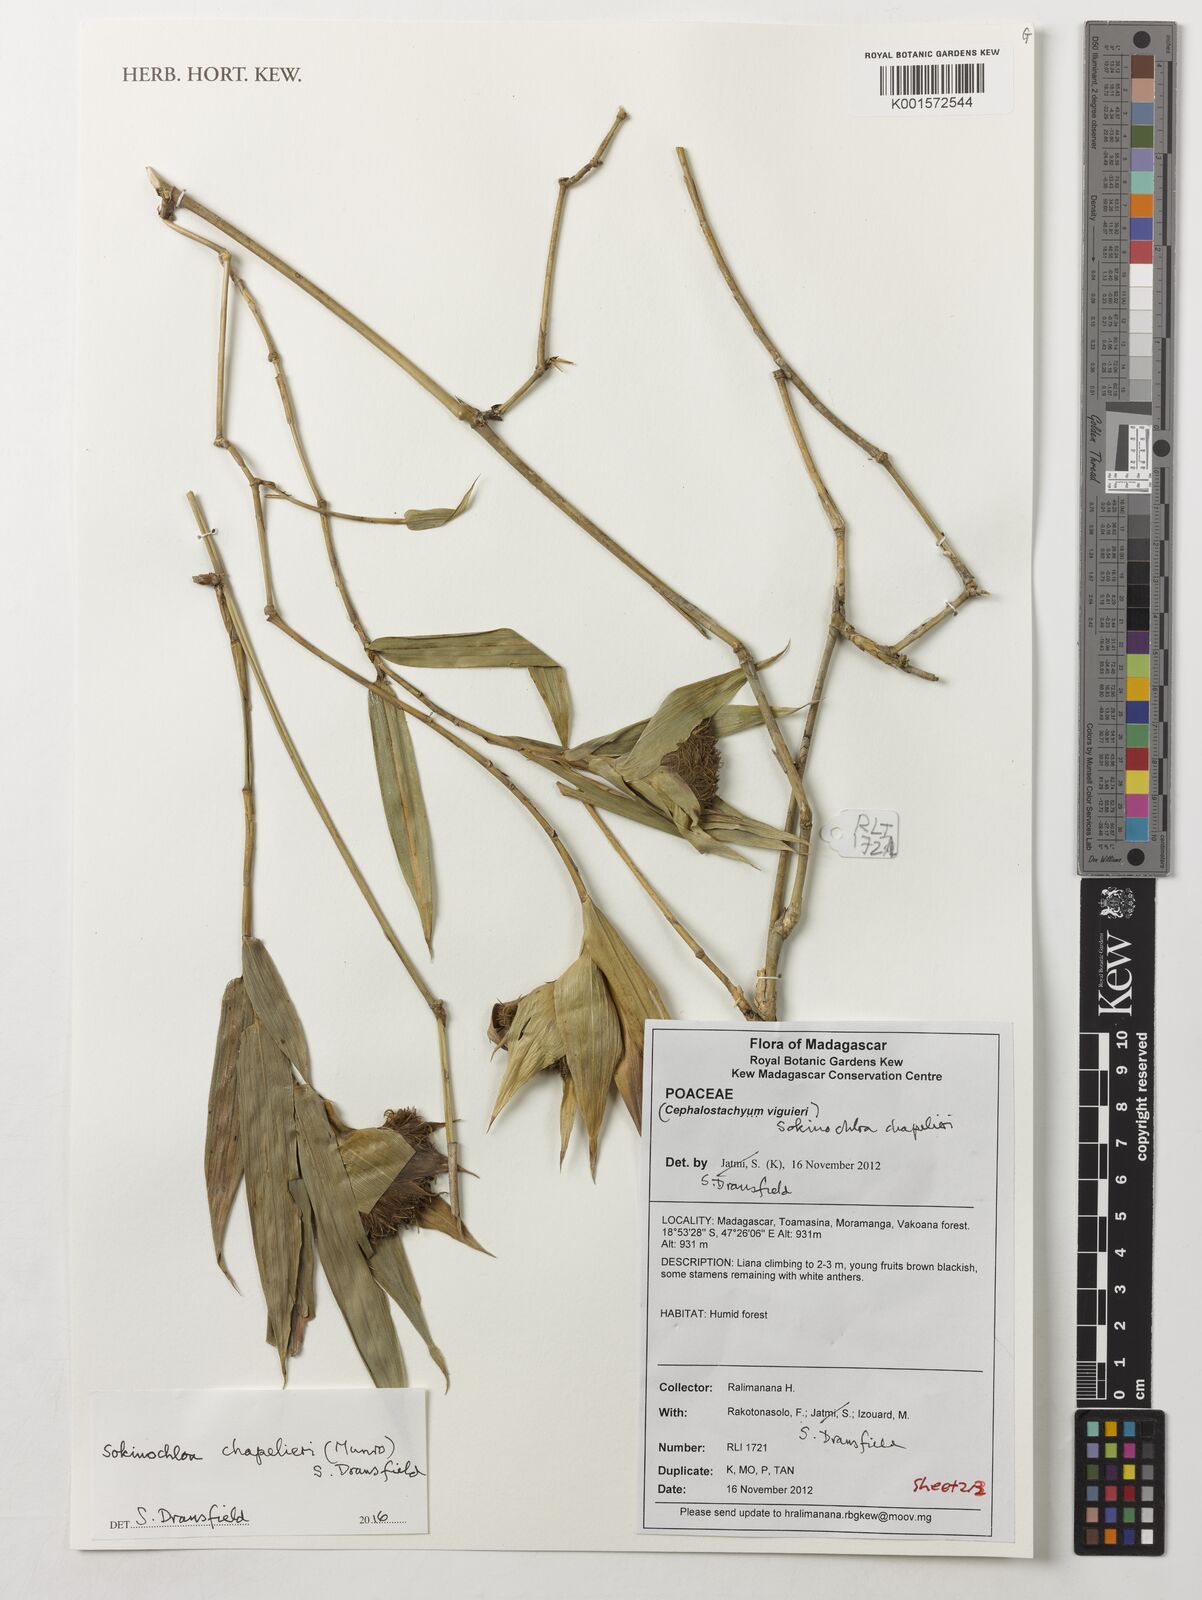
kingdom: Plantae
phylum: Tracheophyta
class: Liliopsida
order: Poales
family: Poaceae
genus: Sokinochloa
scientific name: Sokinochloa chapelieri
